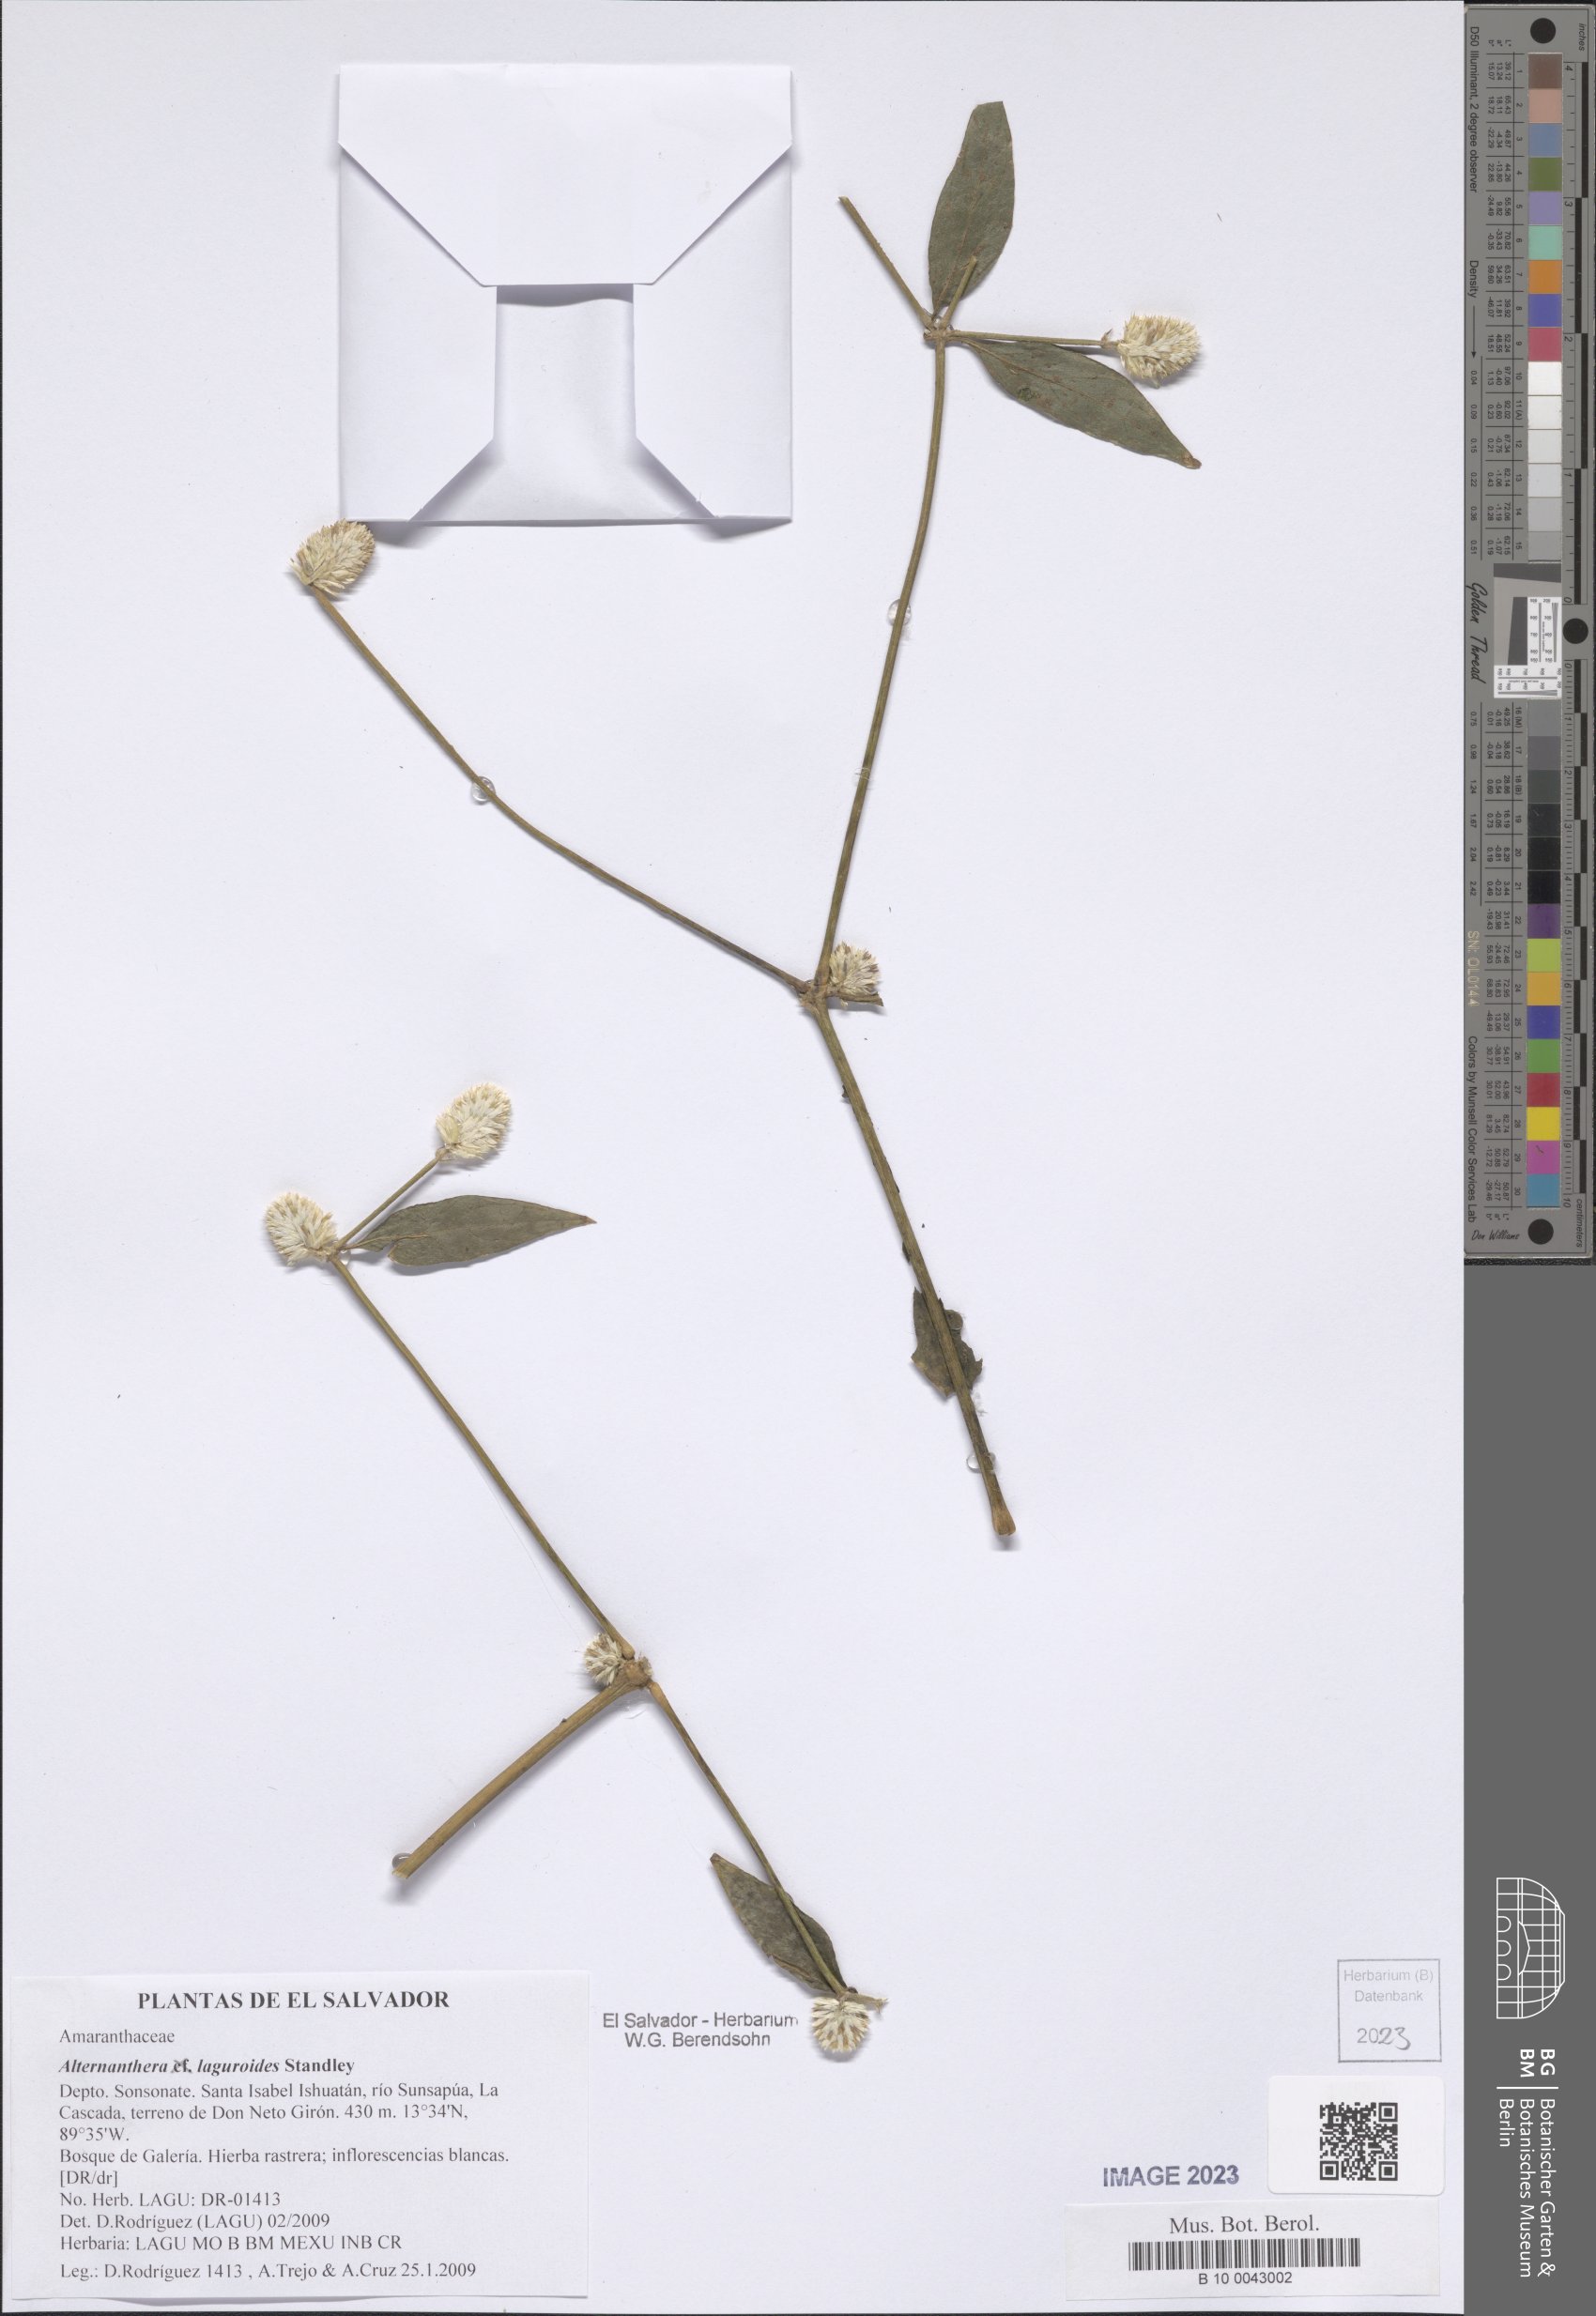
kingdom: Plantae
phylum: Tracheophyta
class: Magnoliopsida
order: Caryophyllales
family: Amaranthaceae
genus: Alternanthera
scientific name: Alternanthera laguroides
